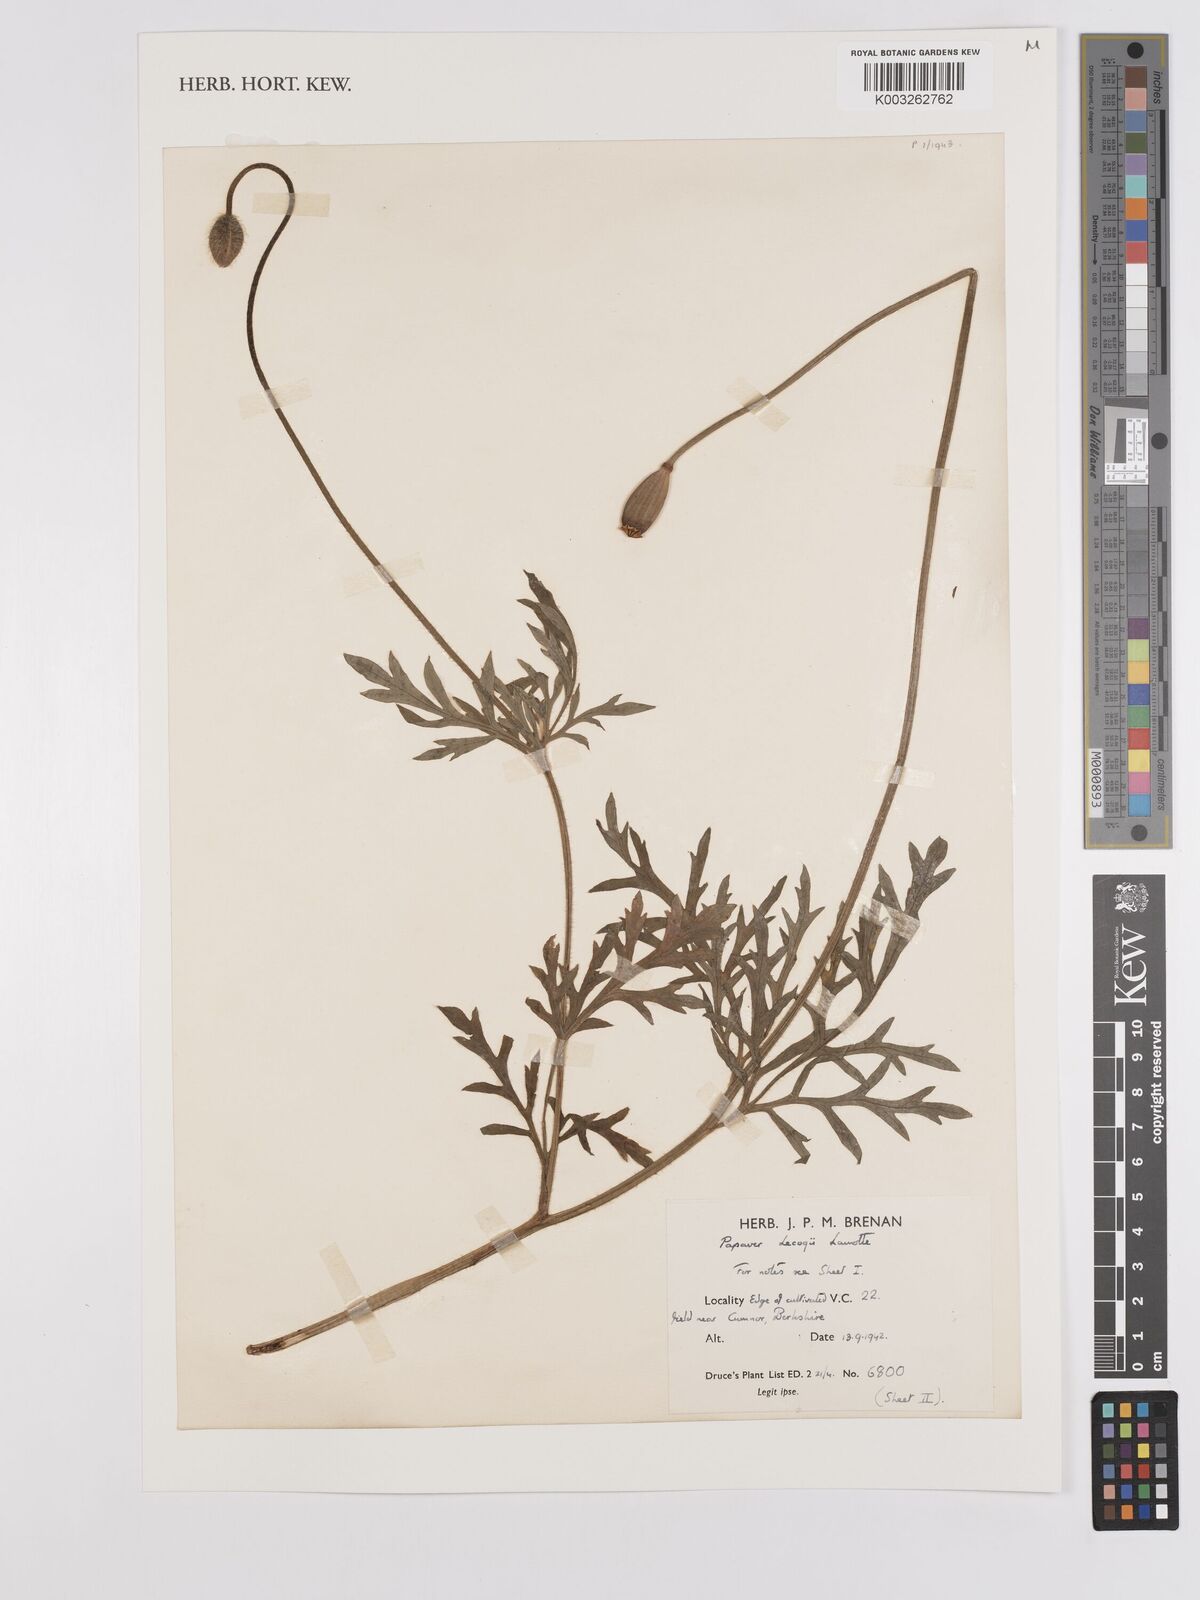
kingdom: Plantae
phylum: Tracheophyta
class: Magnoliopsida
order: Ranunculales
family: Papaveraceae
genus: Papaver
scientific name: Papaver lecoqii
